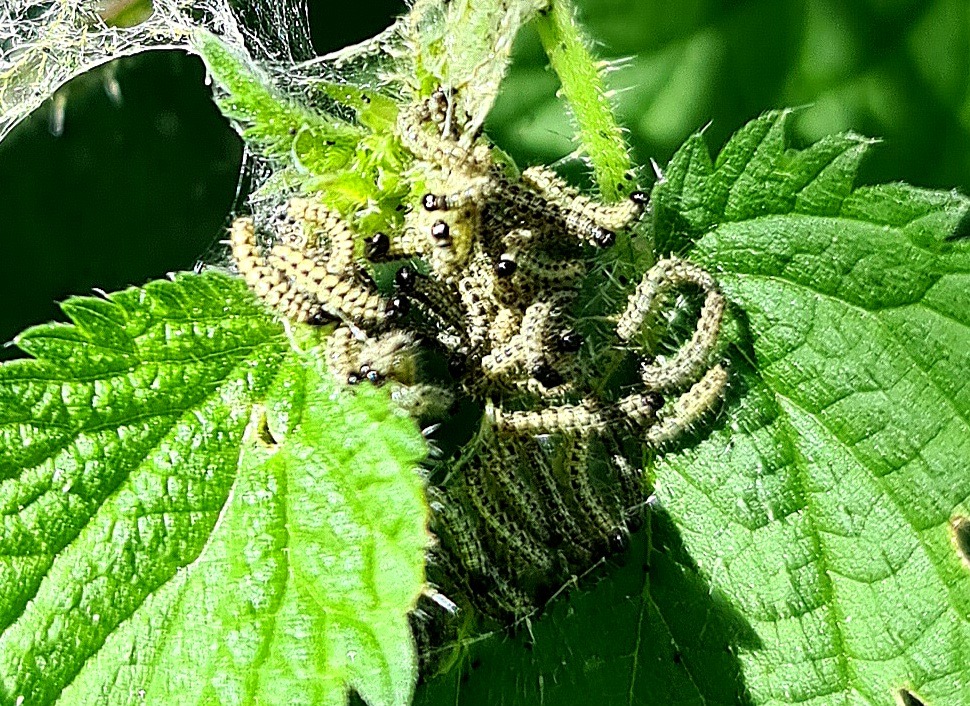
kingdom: Animalia
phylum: Arthropoda
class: Insecta
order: Lepidoptera
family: Nymphalidae
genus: Aglais
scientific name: Aglais urticae
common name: Nældens takvinge
